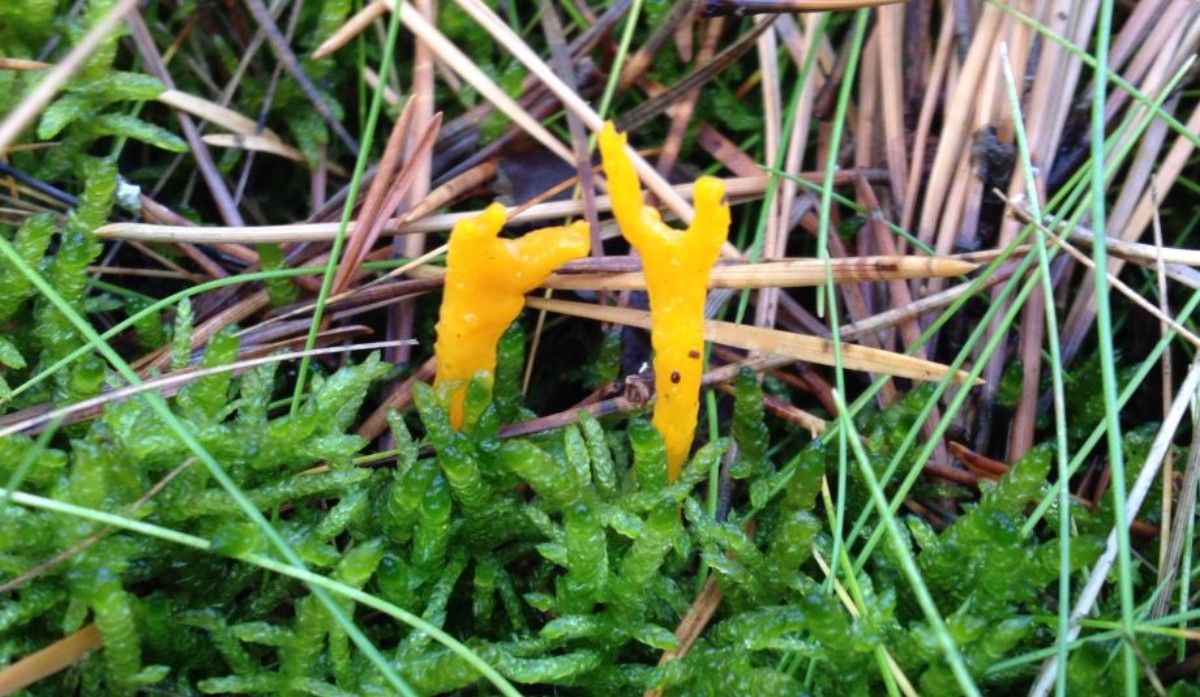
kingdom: Fungi
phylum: Basidiomycota
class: Dacrymycetes
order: Dacrymycetales
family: Dacrymycetaceae
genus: Calocera
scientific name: Calocera viscosa
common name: almindelig guldgaffel
